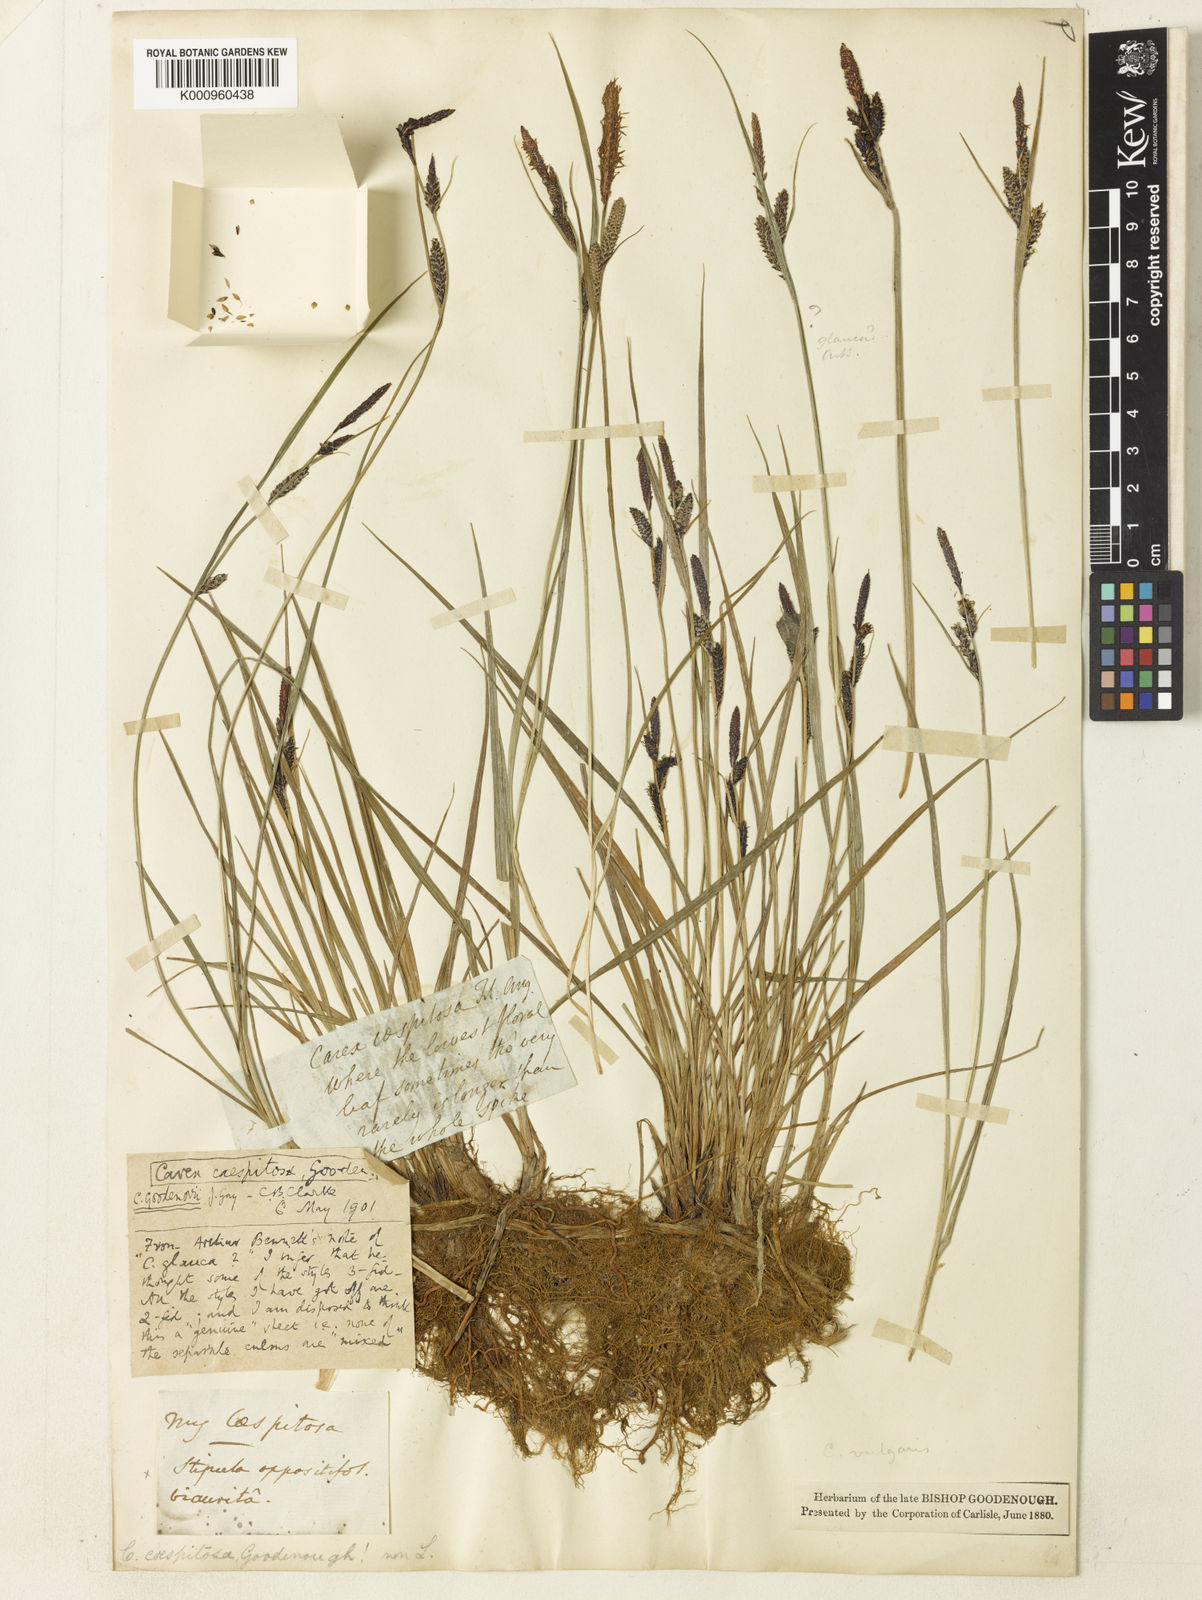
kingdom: Plantae
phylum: Tracheophyta
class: Liliopsida
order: Poales
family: Cyperaceae
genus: Carex
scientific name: Carex elata
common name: Tufted sedge
